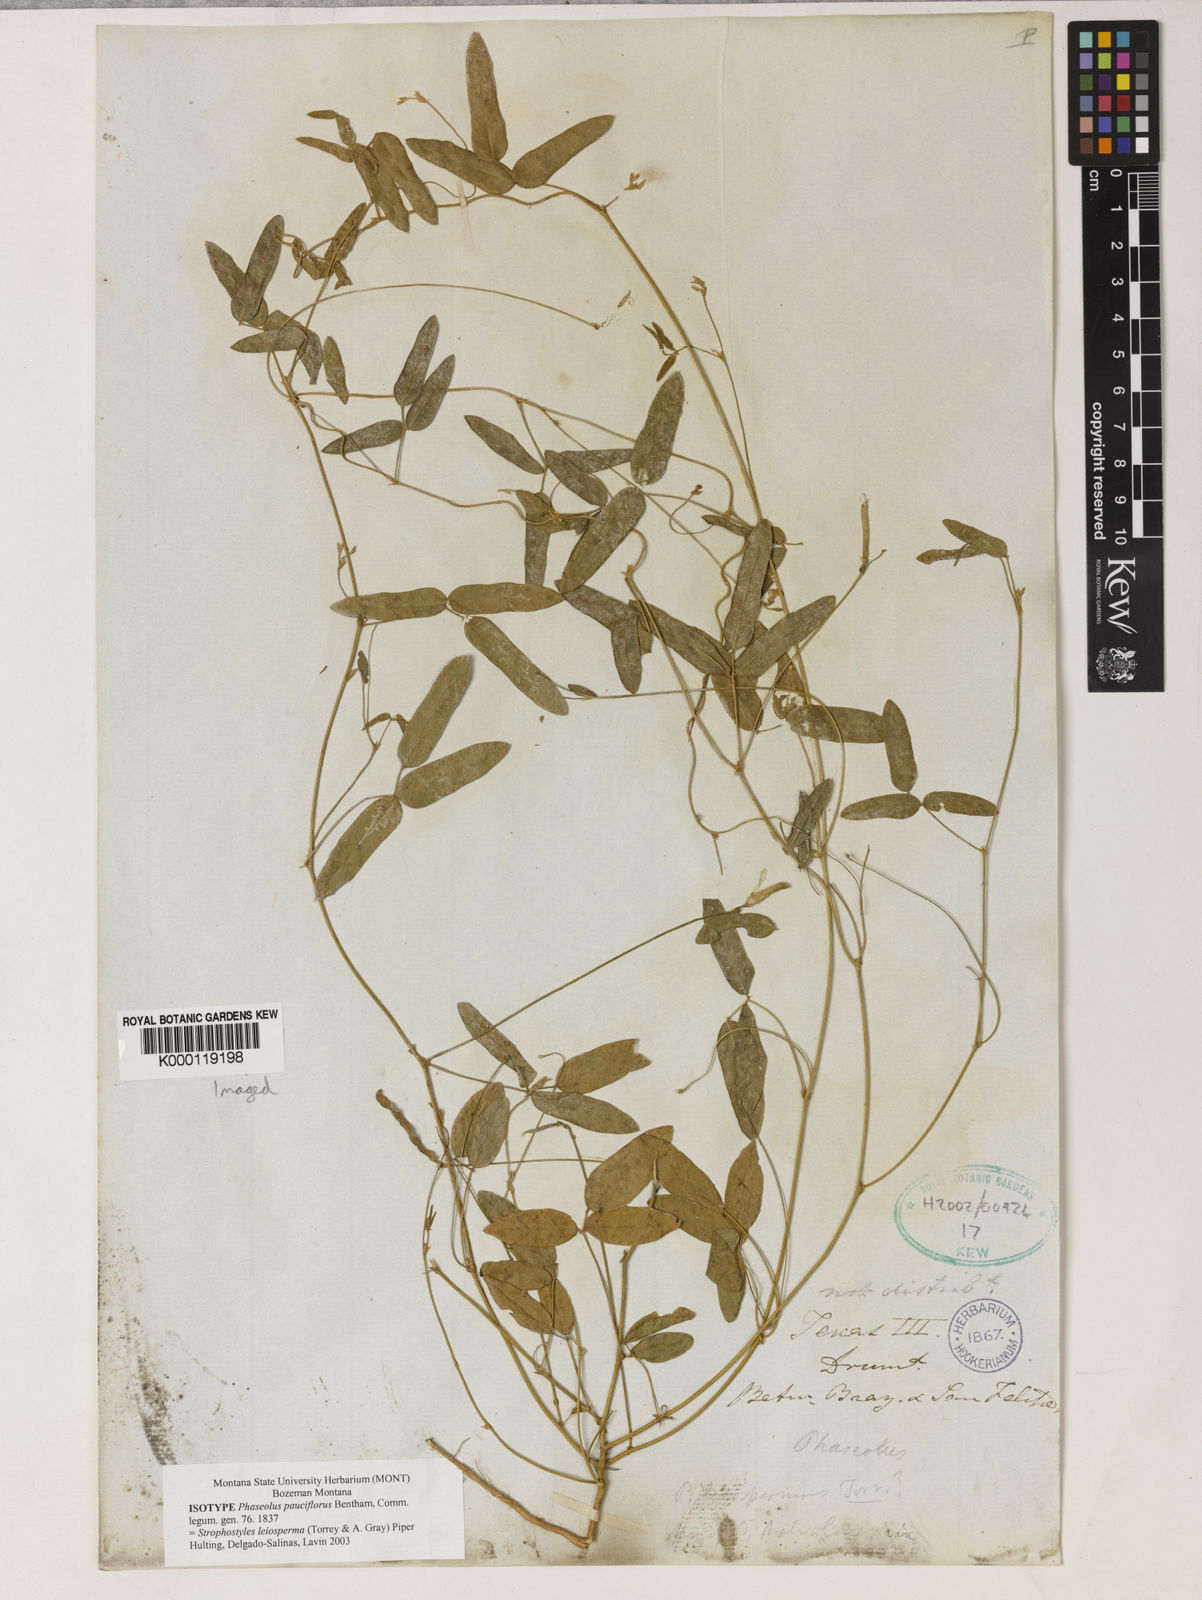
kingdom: Plantae
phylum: Tracheophyta
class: Magnoliopsida
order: Fabales
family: Fabaceae
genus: Strophostyles
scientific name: Strophostyles leiosperma
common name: Smooth-seed wild bean
